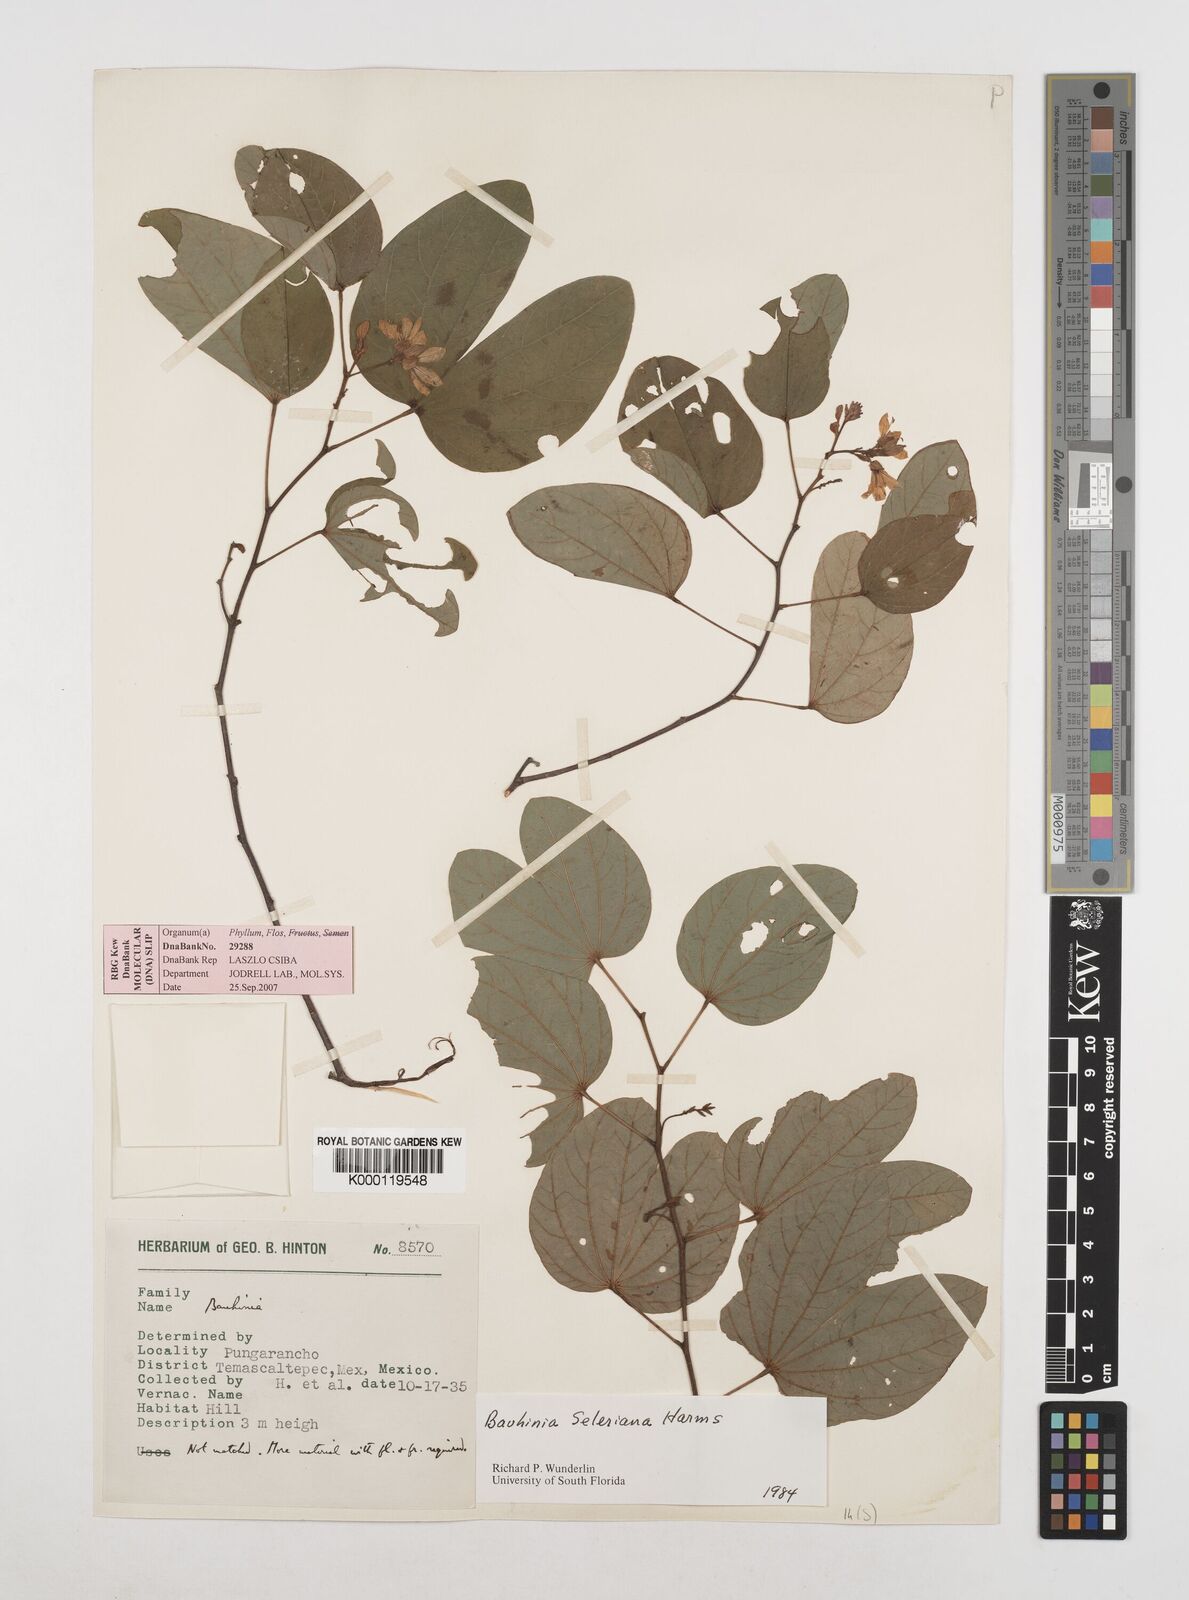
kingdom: Plantae
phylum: Tracheophyta
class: Magnoliopsida
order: Fabales
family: Fabaceae
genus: Bauhinia
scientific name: Bauhinia seleriana
